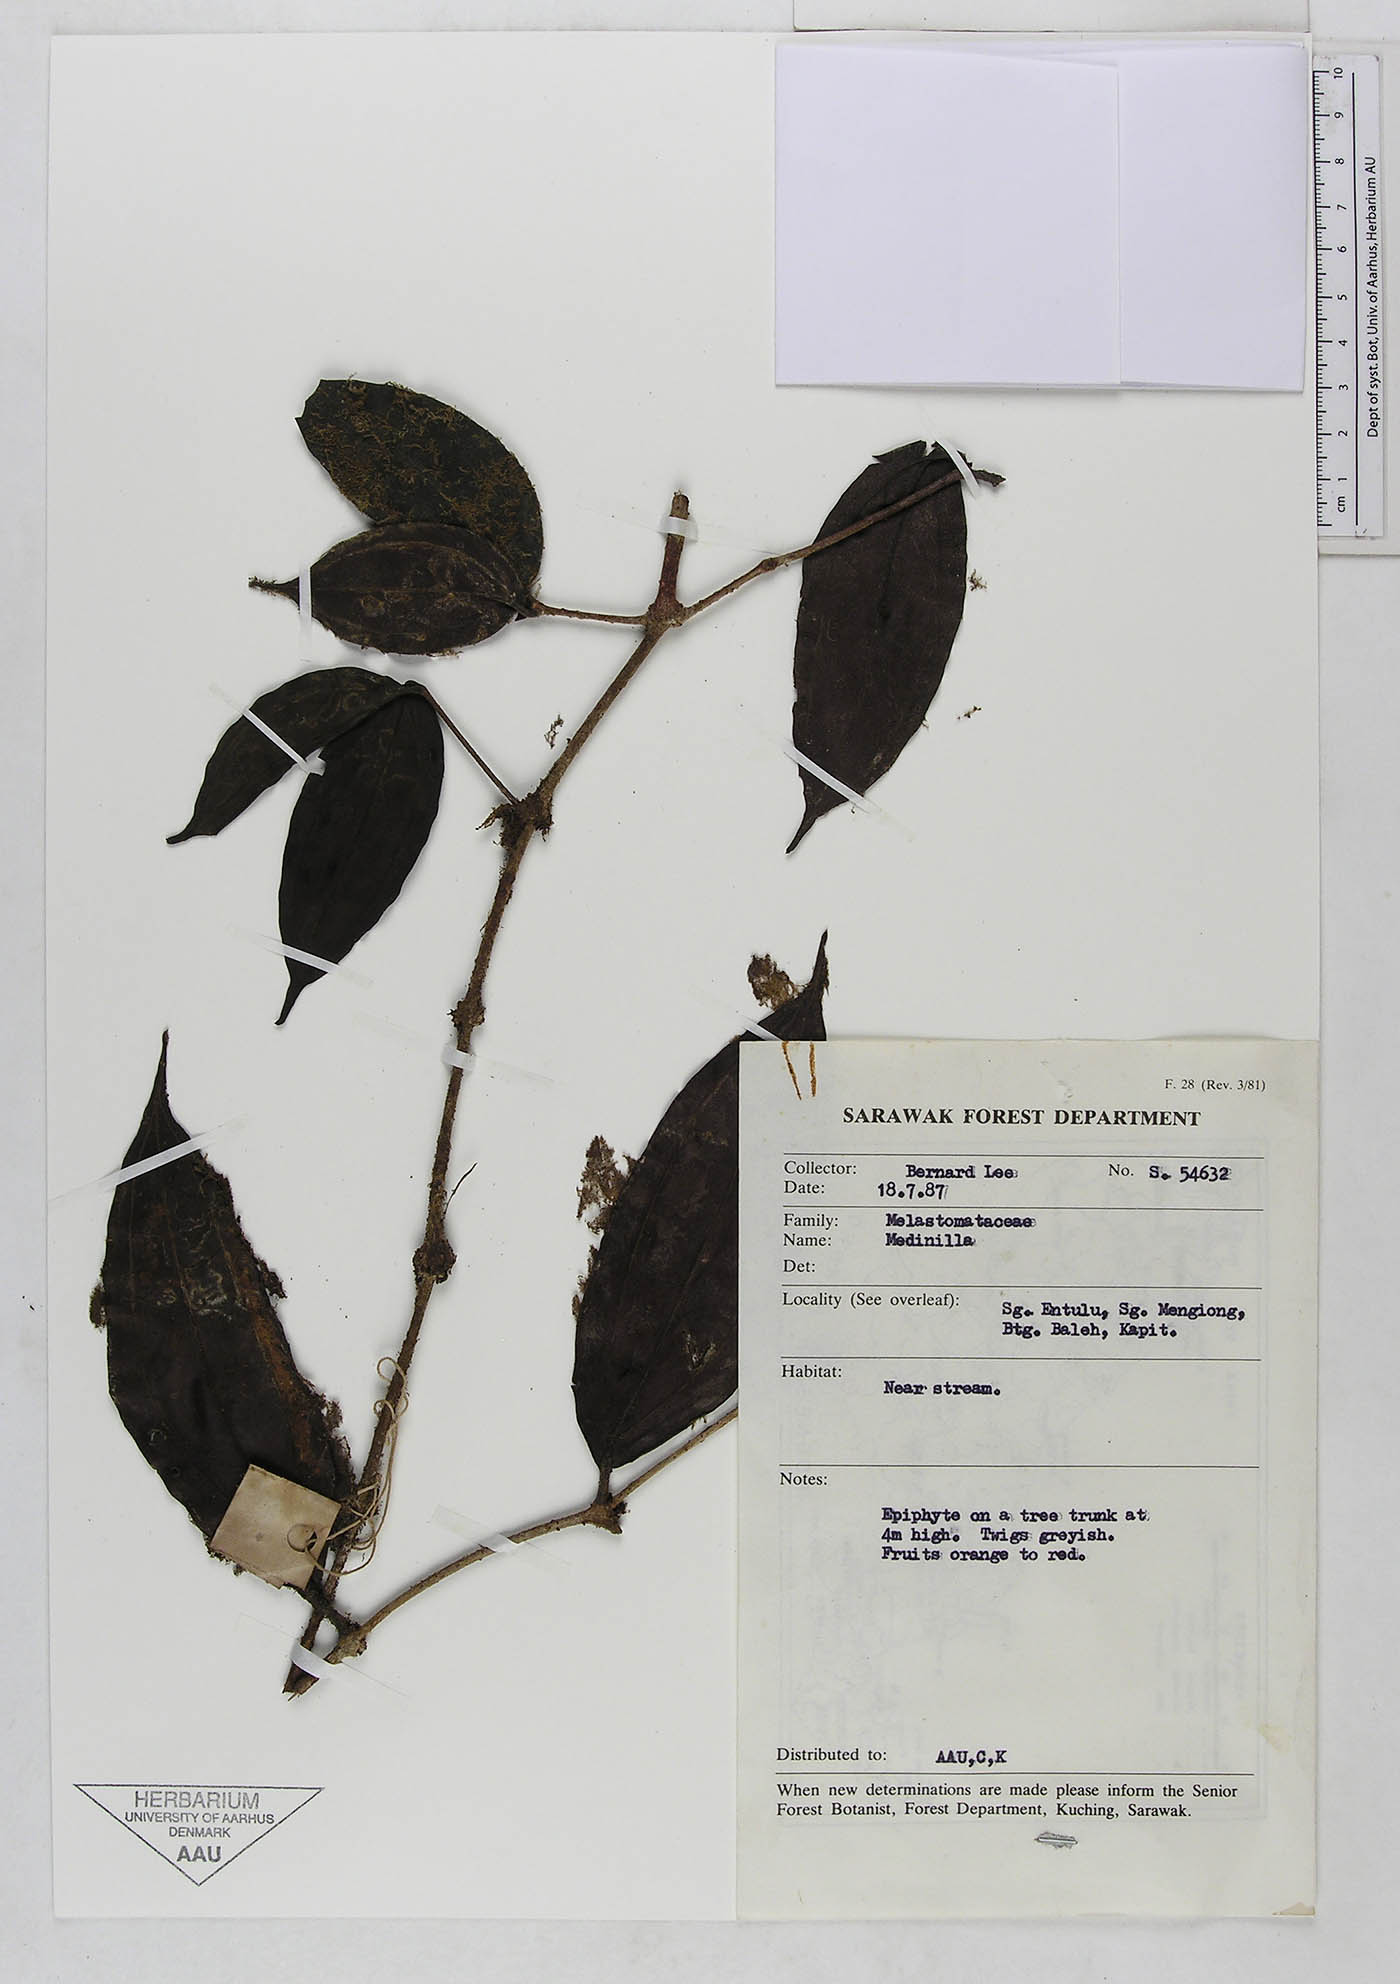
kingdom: Plantae
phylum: Tracheophyta
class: Magnoliopsida
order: Myrtales
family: Melastomataceae
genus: Medinilla
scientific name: Medinilla
